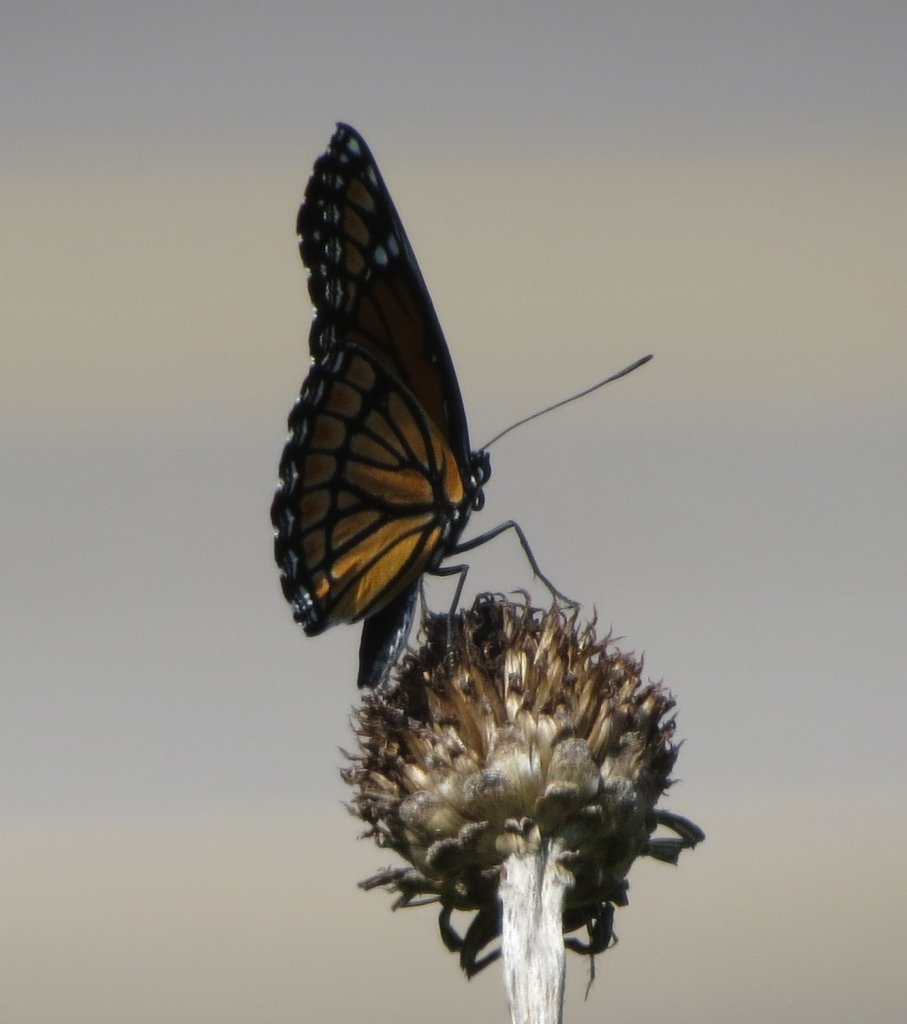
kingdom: Animalia
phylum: Arthropoda
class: Insecta
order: Lepidoptera
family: Nymphalidae
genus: Limenitis
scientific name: Limenitis archippus
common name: Viceroy
